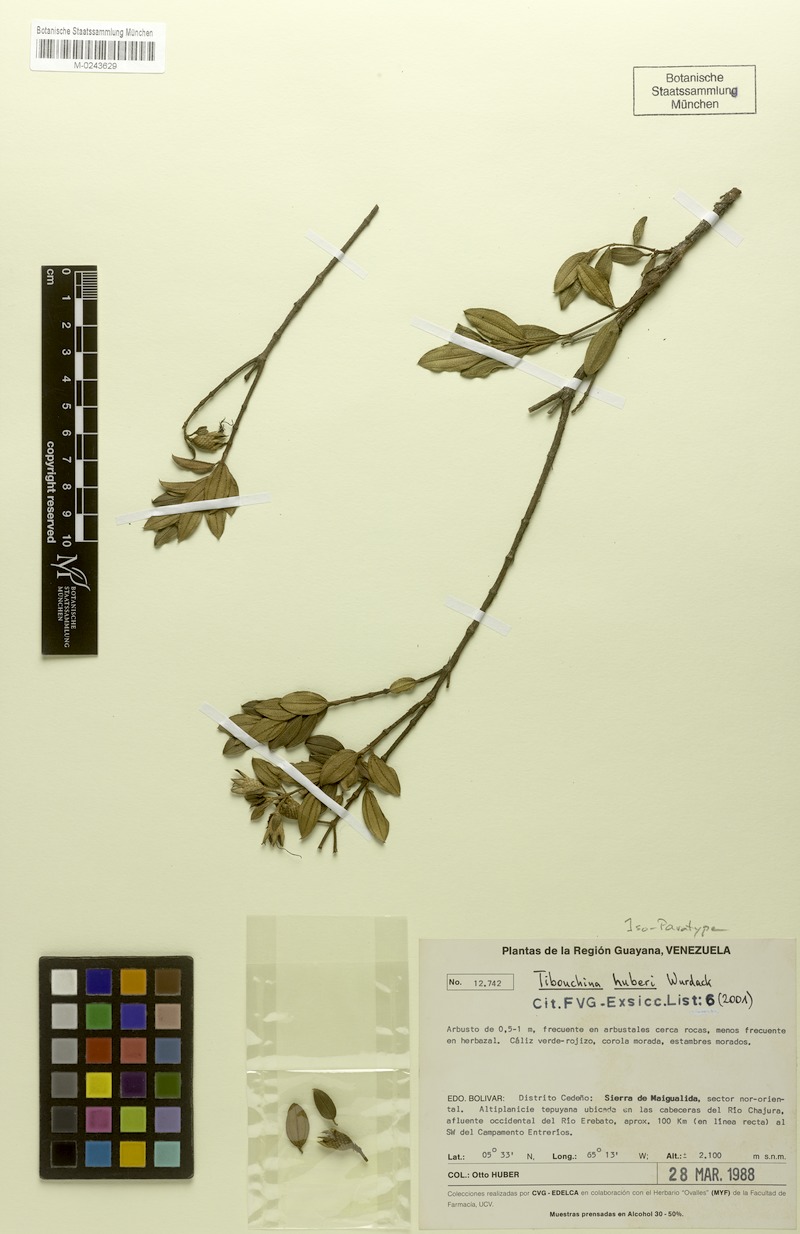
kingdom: Plantae
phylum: Tracheophyta
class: Magnoliopsida
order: Myrtales
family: Melastomataceae
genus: Tibouchina
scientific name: Tibouchina huberi
